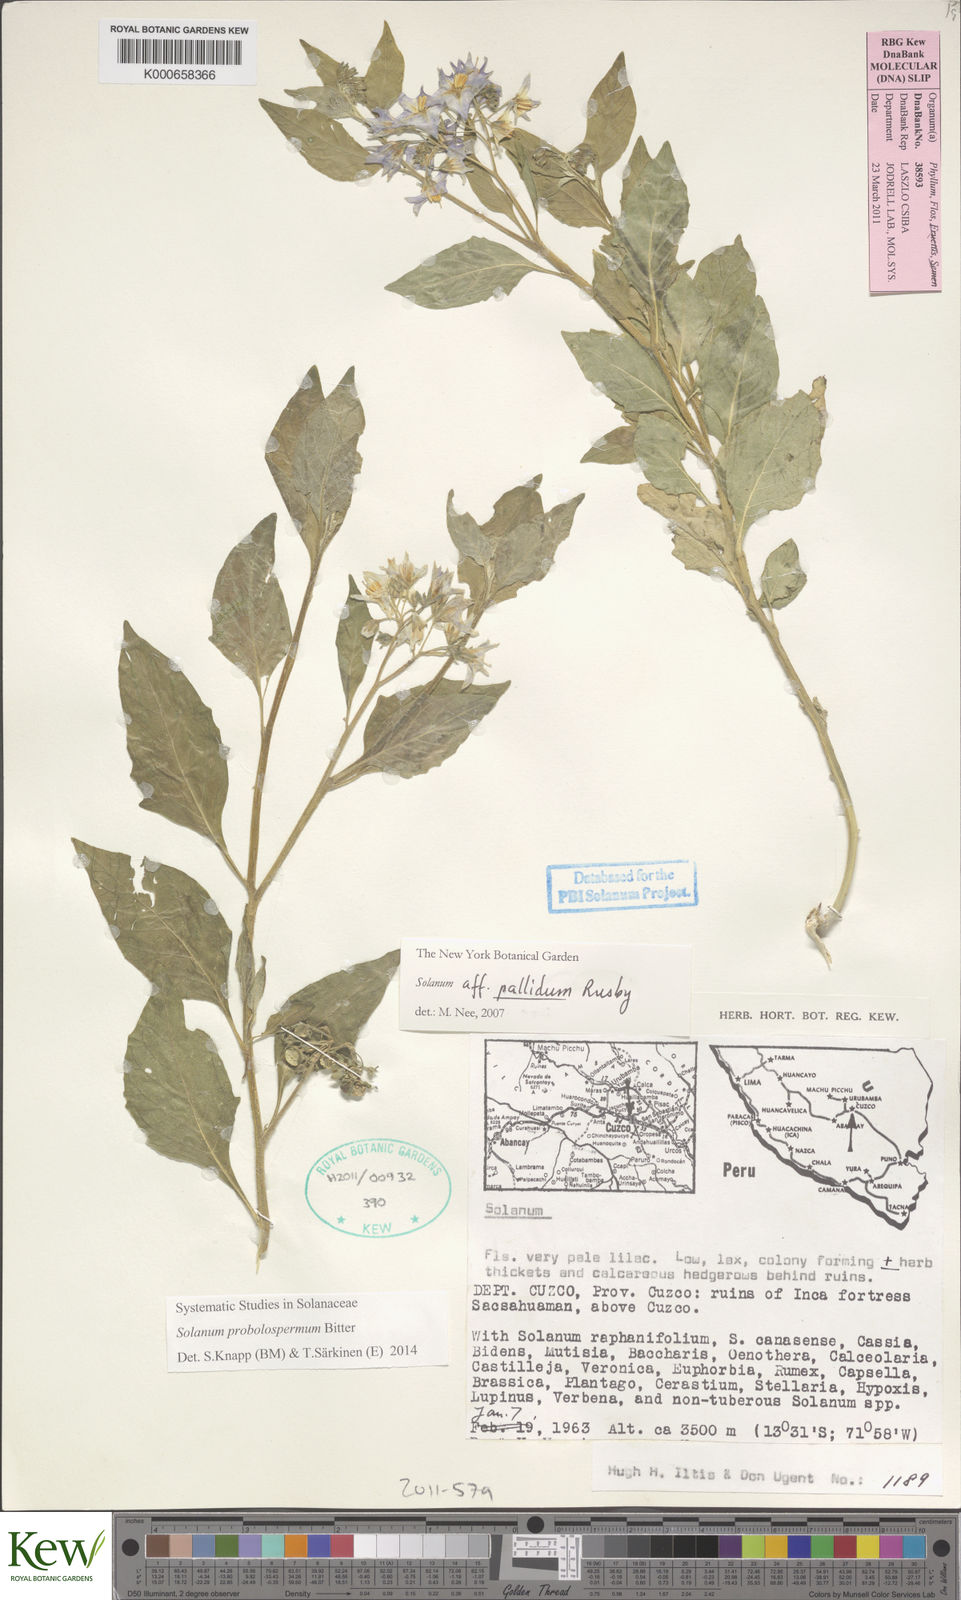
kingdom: Plantae
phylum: Tracheophyta
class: Magnoliopsida
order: Solanales
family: Solanaceae
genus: Solanum
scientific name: Solanum probolospermum
